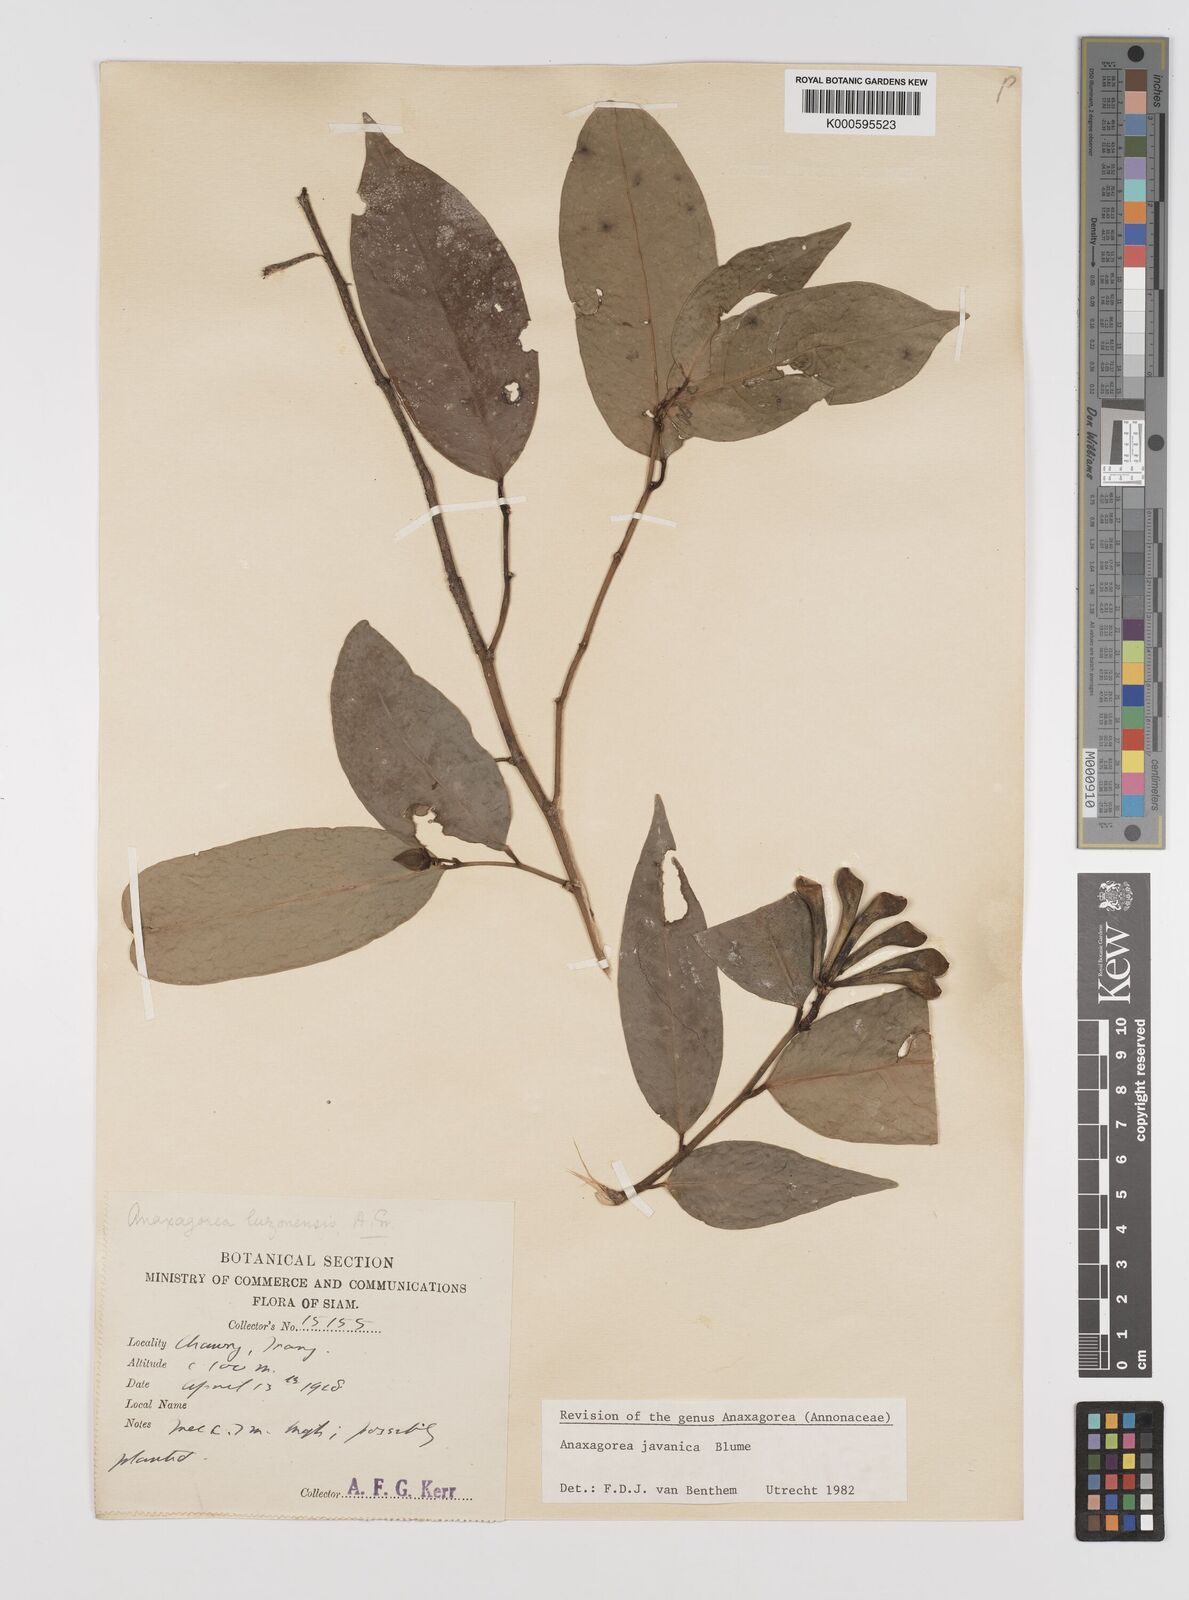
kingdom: Plantae
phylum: Tracheophyta
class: Magnoliopsida
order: Magnoliales
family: Annonaceae
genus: Anaxagorea
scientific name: Anaxagorea javanica
